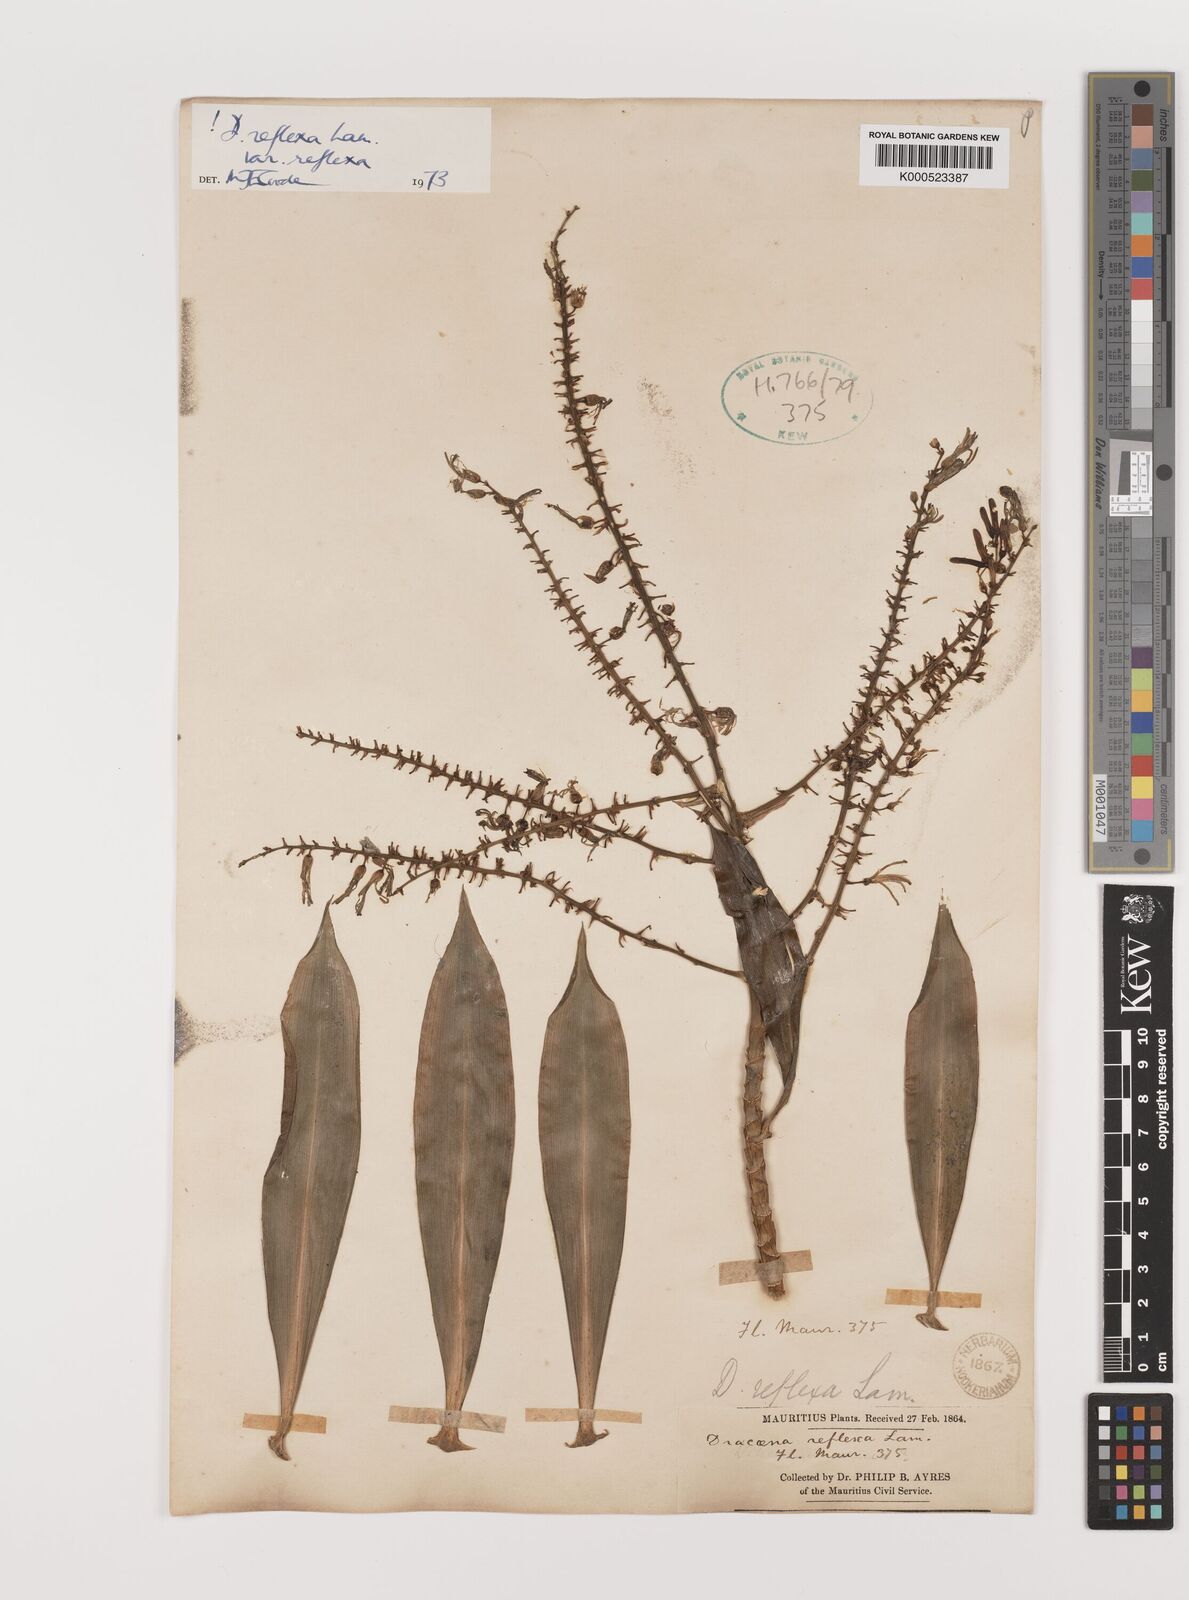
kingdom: Plantae
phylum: Tracheophyta
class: Liliopsida
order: Asparagales
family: Asparagaceae
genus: Dracaena
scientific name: Dracaena reflexa
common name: Song-of-india
